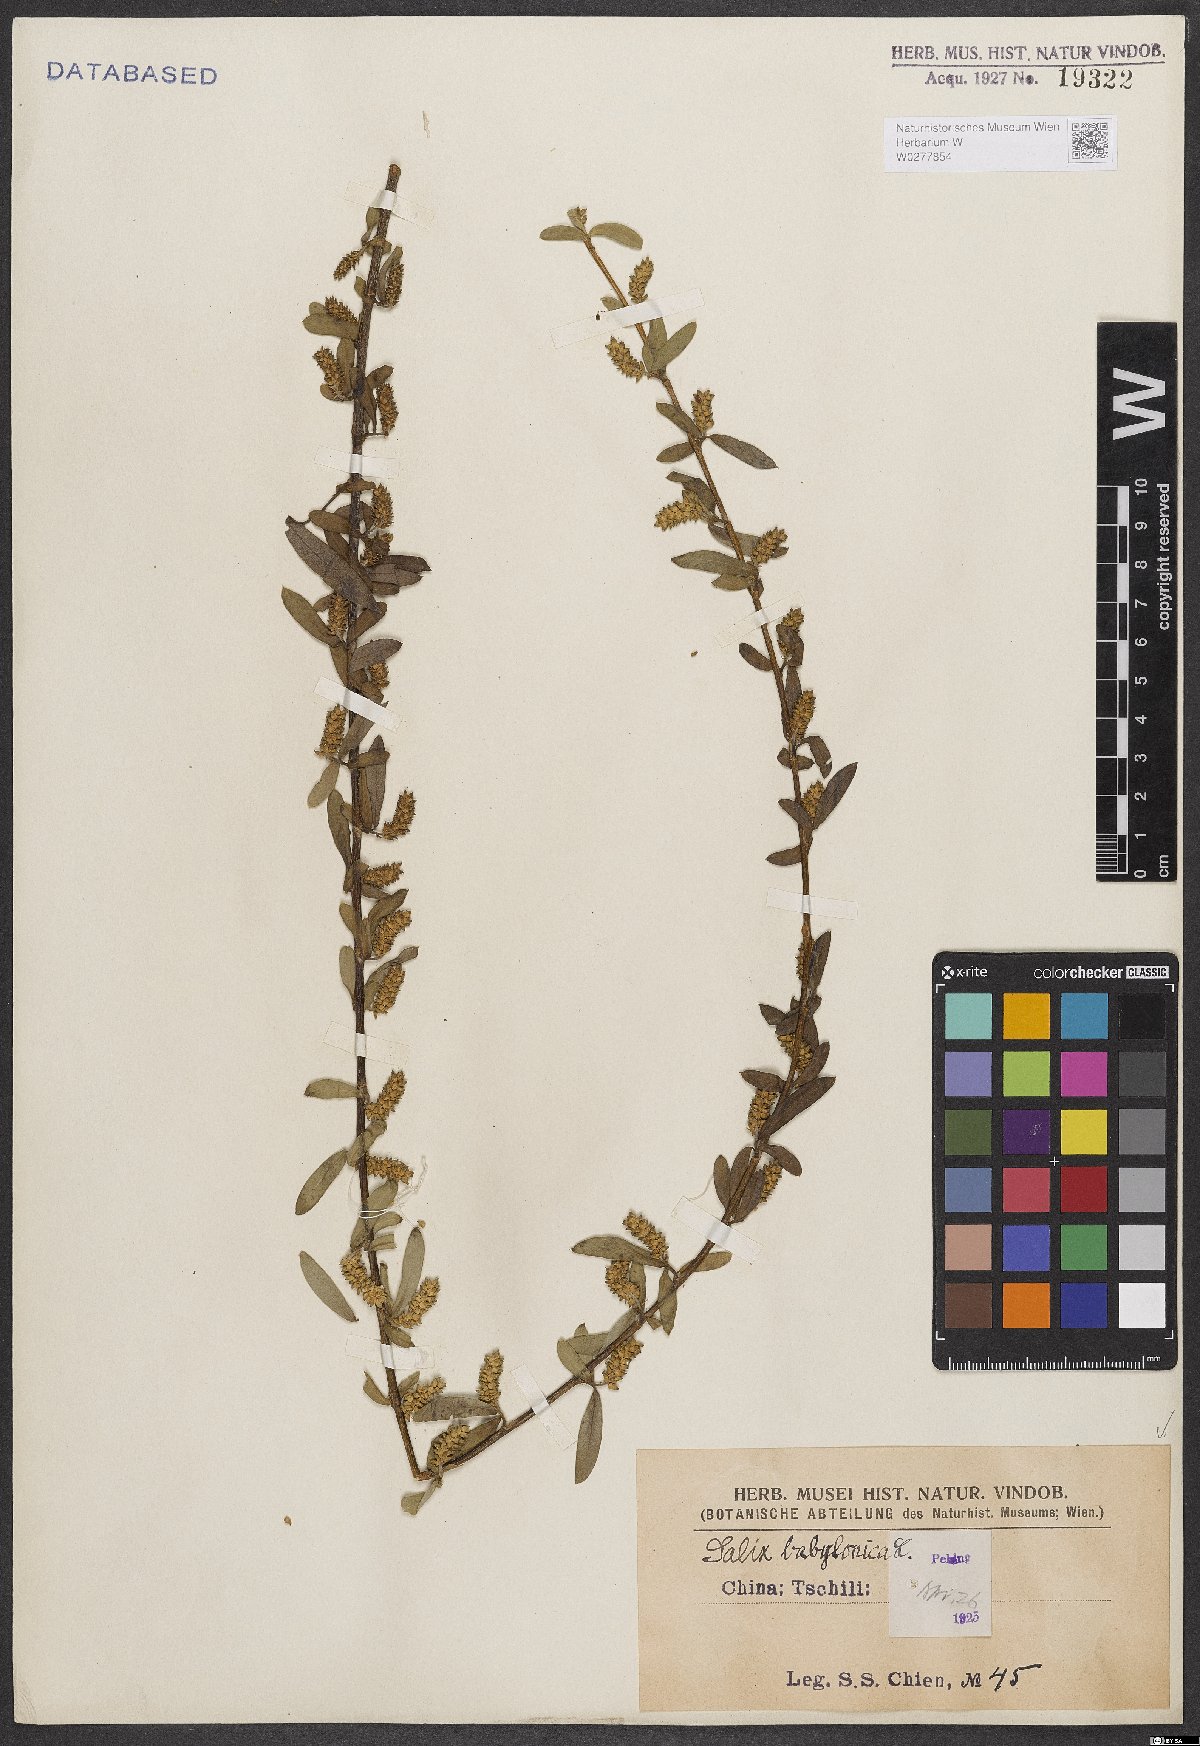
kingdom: Plantae
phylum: Tracheophyta
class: Magnoliopsida
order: Malpighiales
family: Salicaceae
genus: Salix
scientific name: Salix babylonica
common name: Weeping willow
